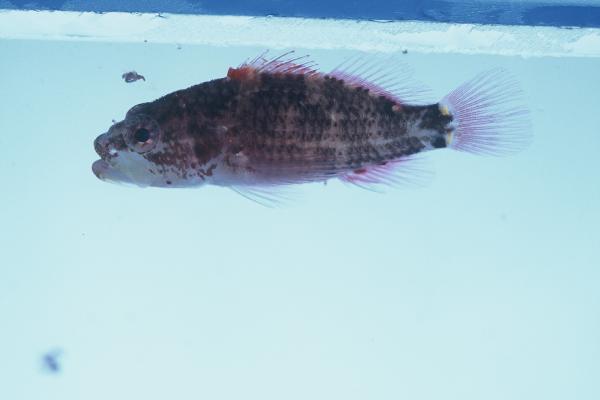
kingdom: Animalia
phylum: Chordata
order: Perciformes
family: Serranidae
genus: Plectranthias
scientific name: Plectranthias longimanus
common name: Longfin perchlet
